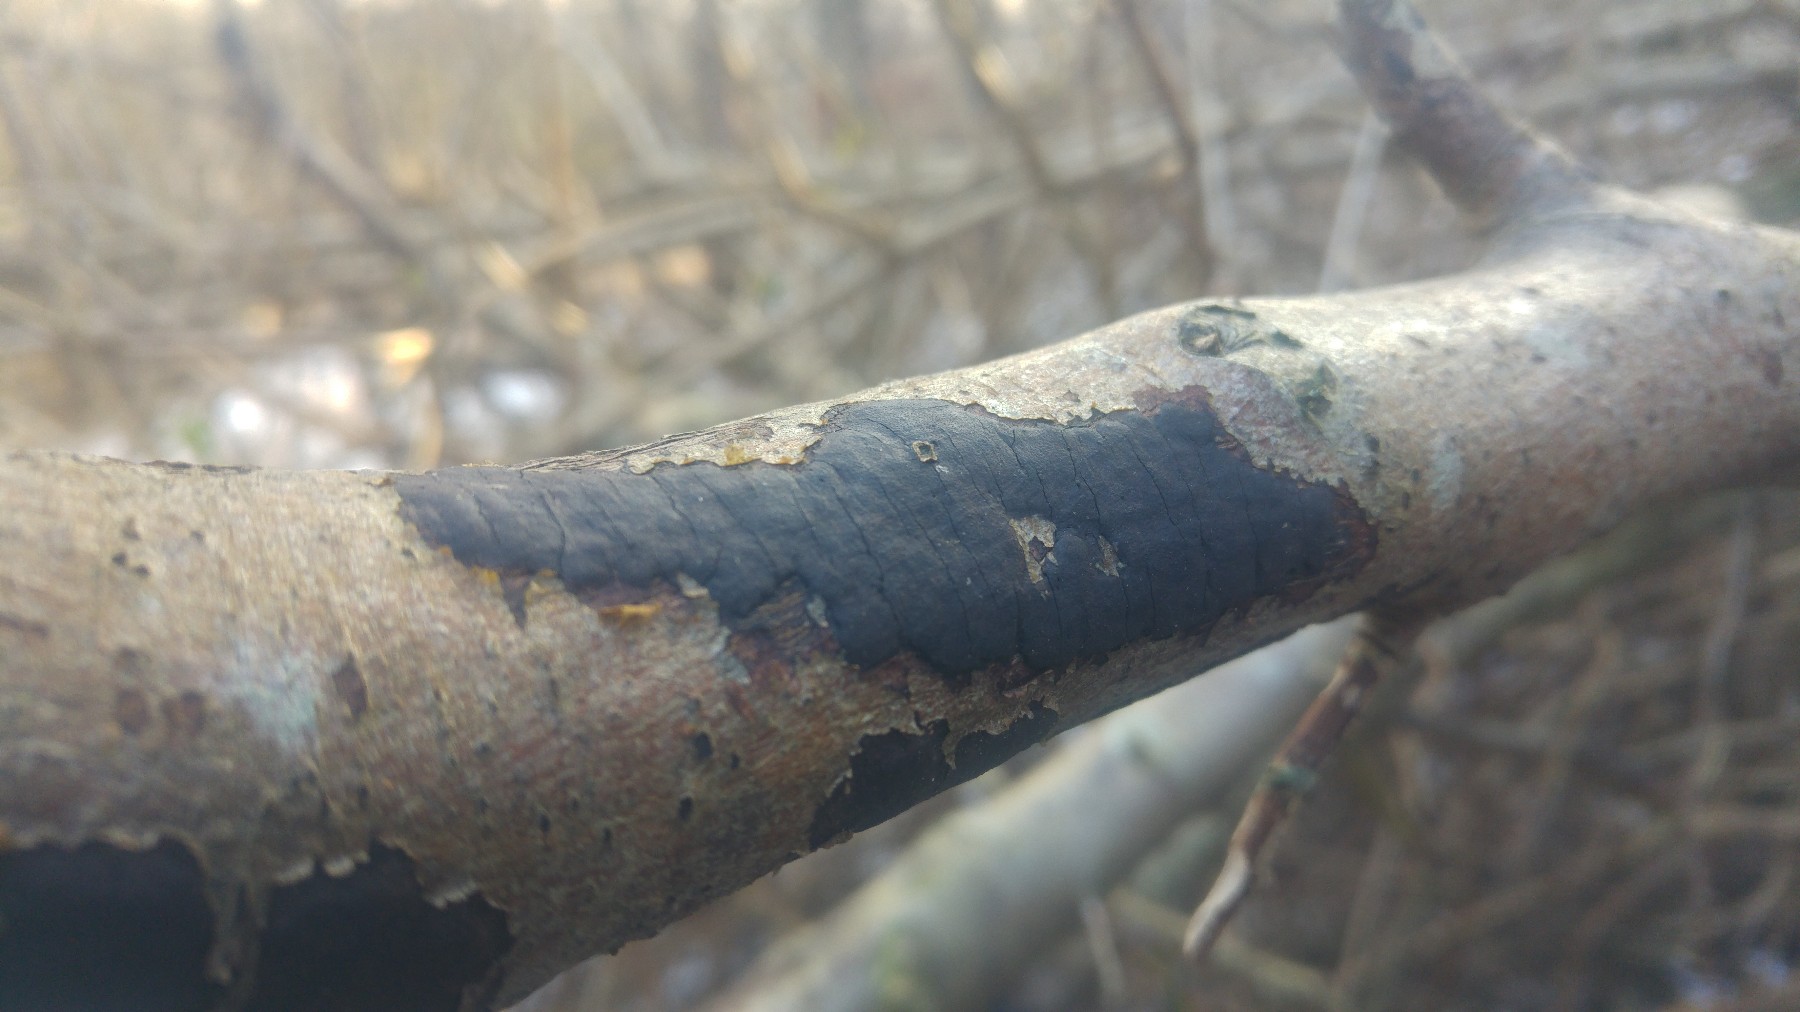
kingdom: Fungi
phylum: Ascomycota
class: Sordariomycetes
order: Xylariales
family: Diatrypaceae
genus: Diatrype
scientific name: Diatrype
